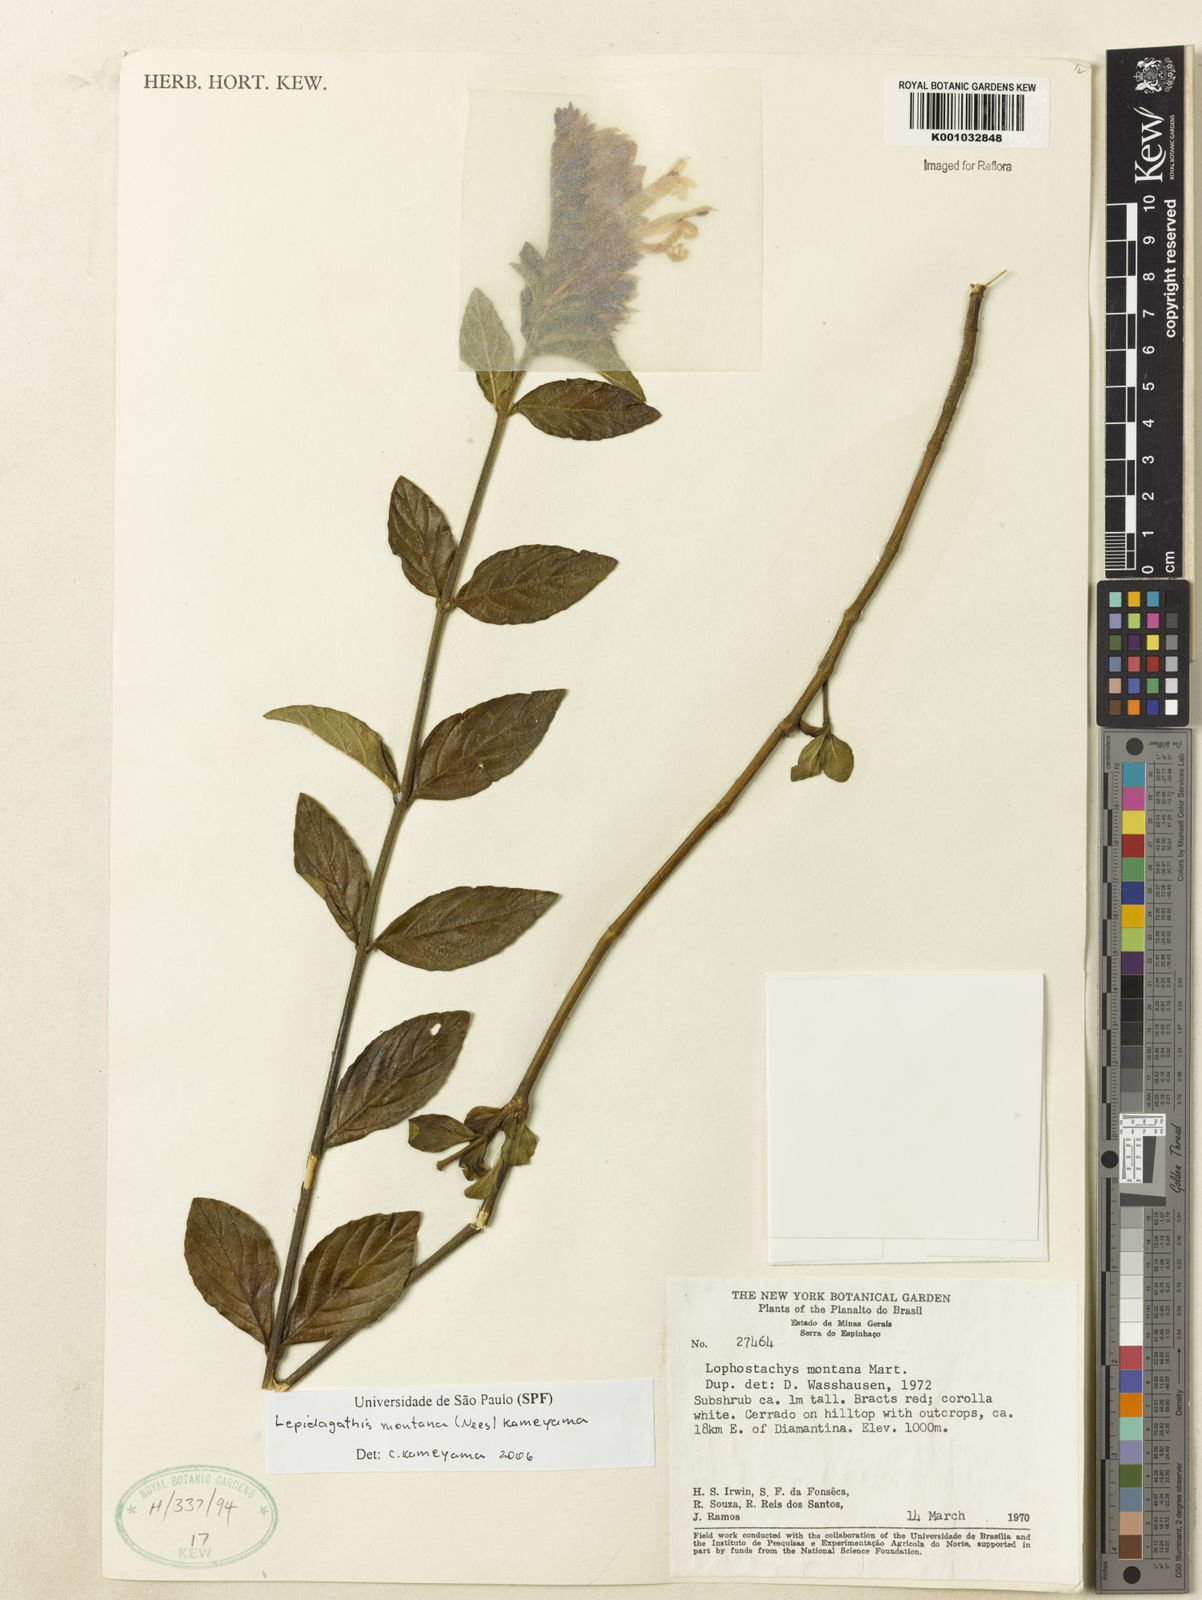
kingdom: Plantae
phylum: Tracheophyta
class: Magnoliopsida
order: Lamiales
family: Acanthaceae
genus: Lepidagathis
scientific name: Lepidagathis montana
